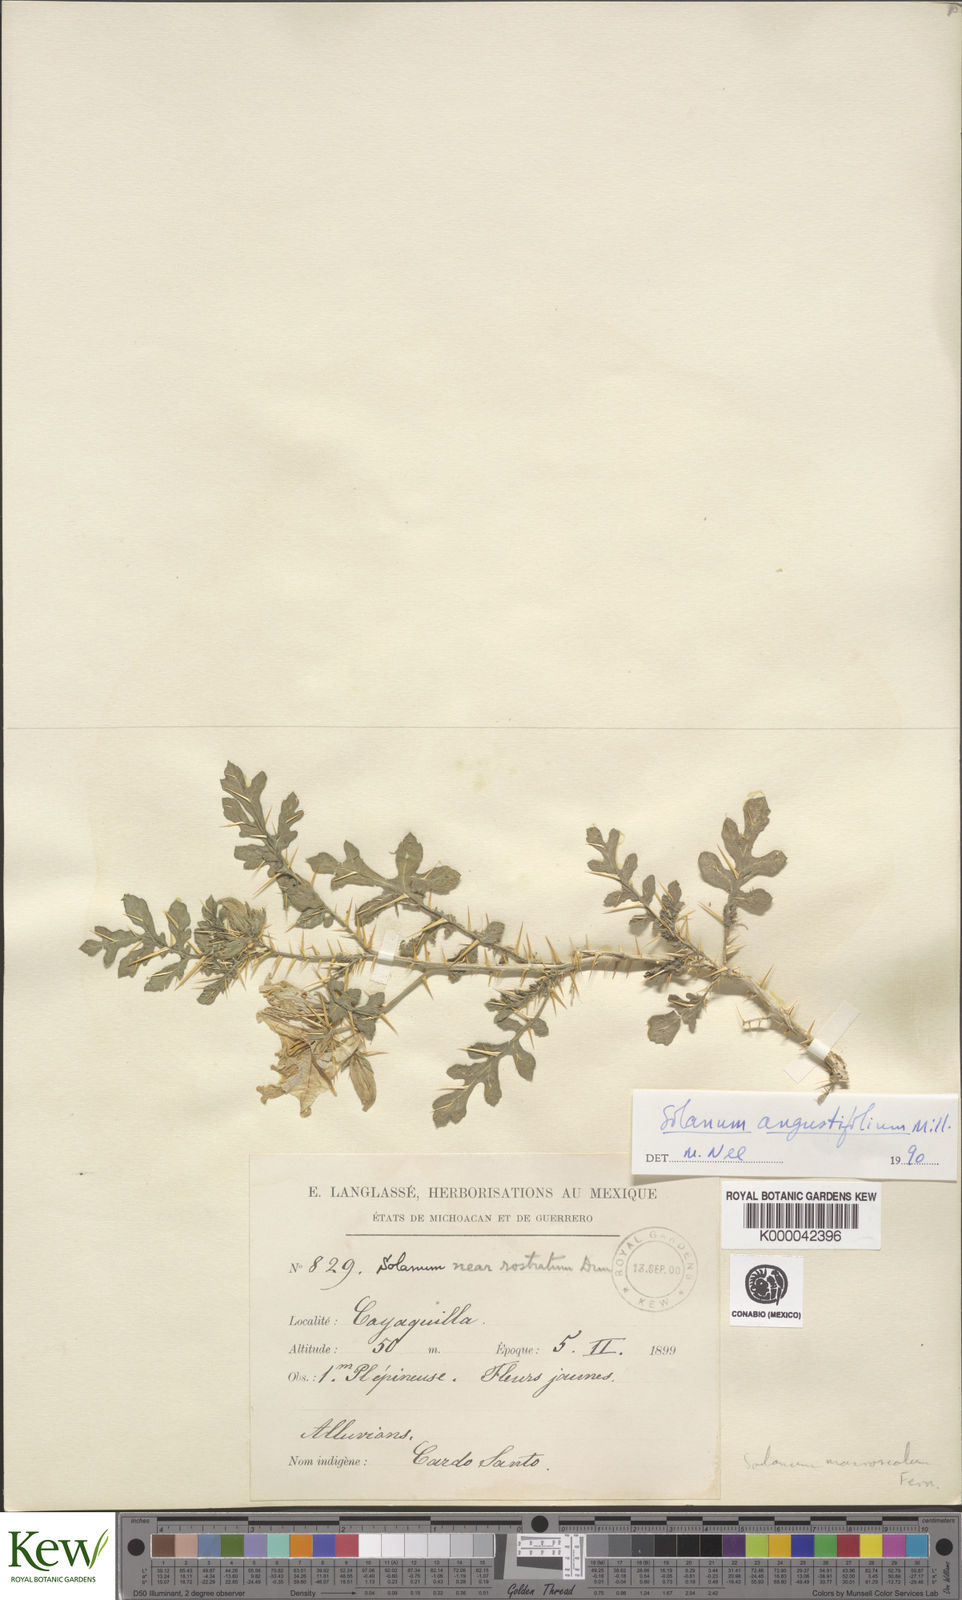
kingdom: Plantae
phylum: Tracheophyta
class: Magnoliopsida
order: Solanales
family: Solanaceae
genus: Solanum
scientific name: Solanum angustifolium
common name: Buffalobur nightshade
